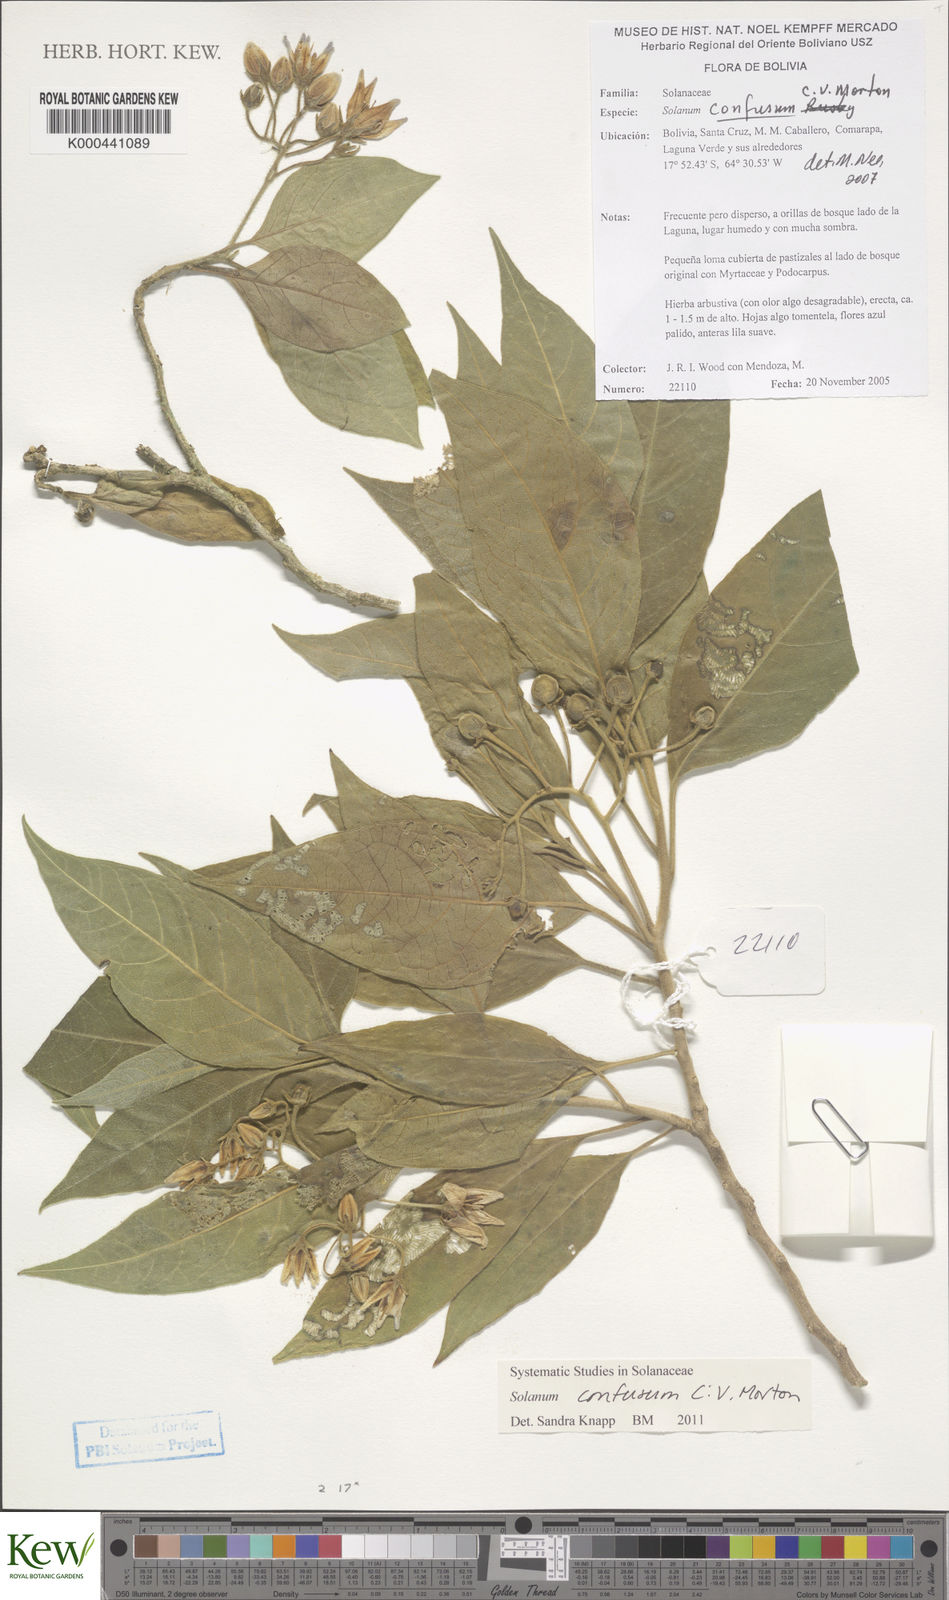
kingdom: Plantae
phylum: Tracheophyta
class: Magnoliopsida
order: Solanales
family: Solanaceae
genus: Solanum
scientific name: Solanum confusum
